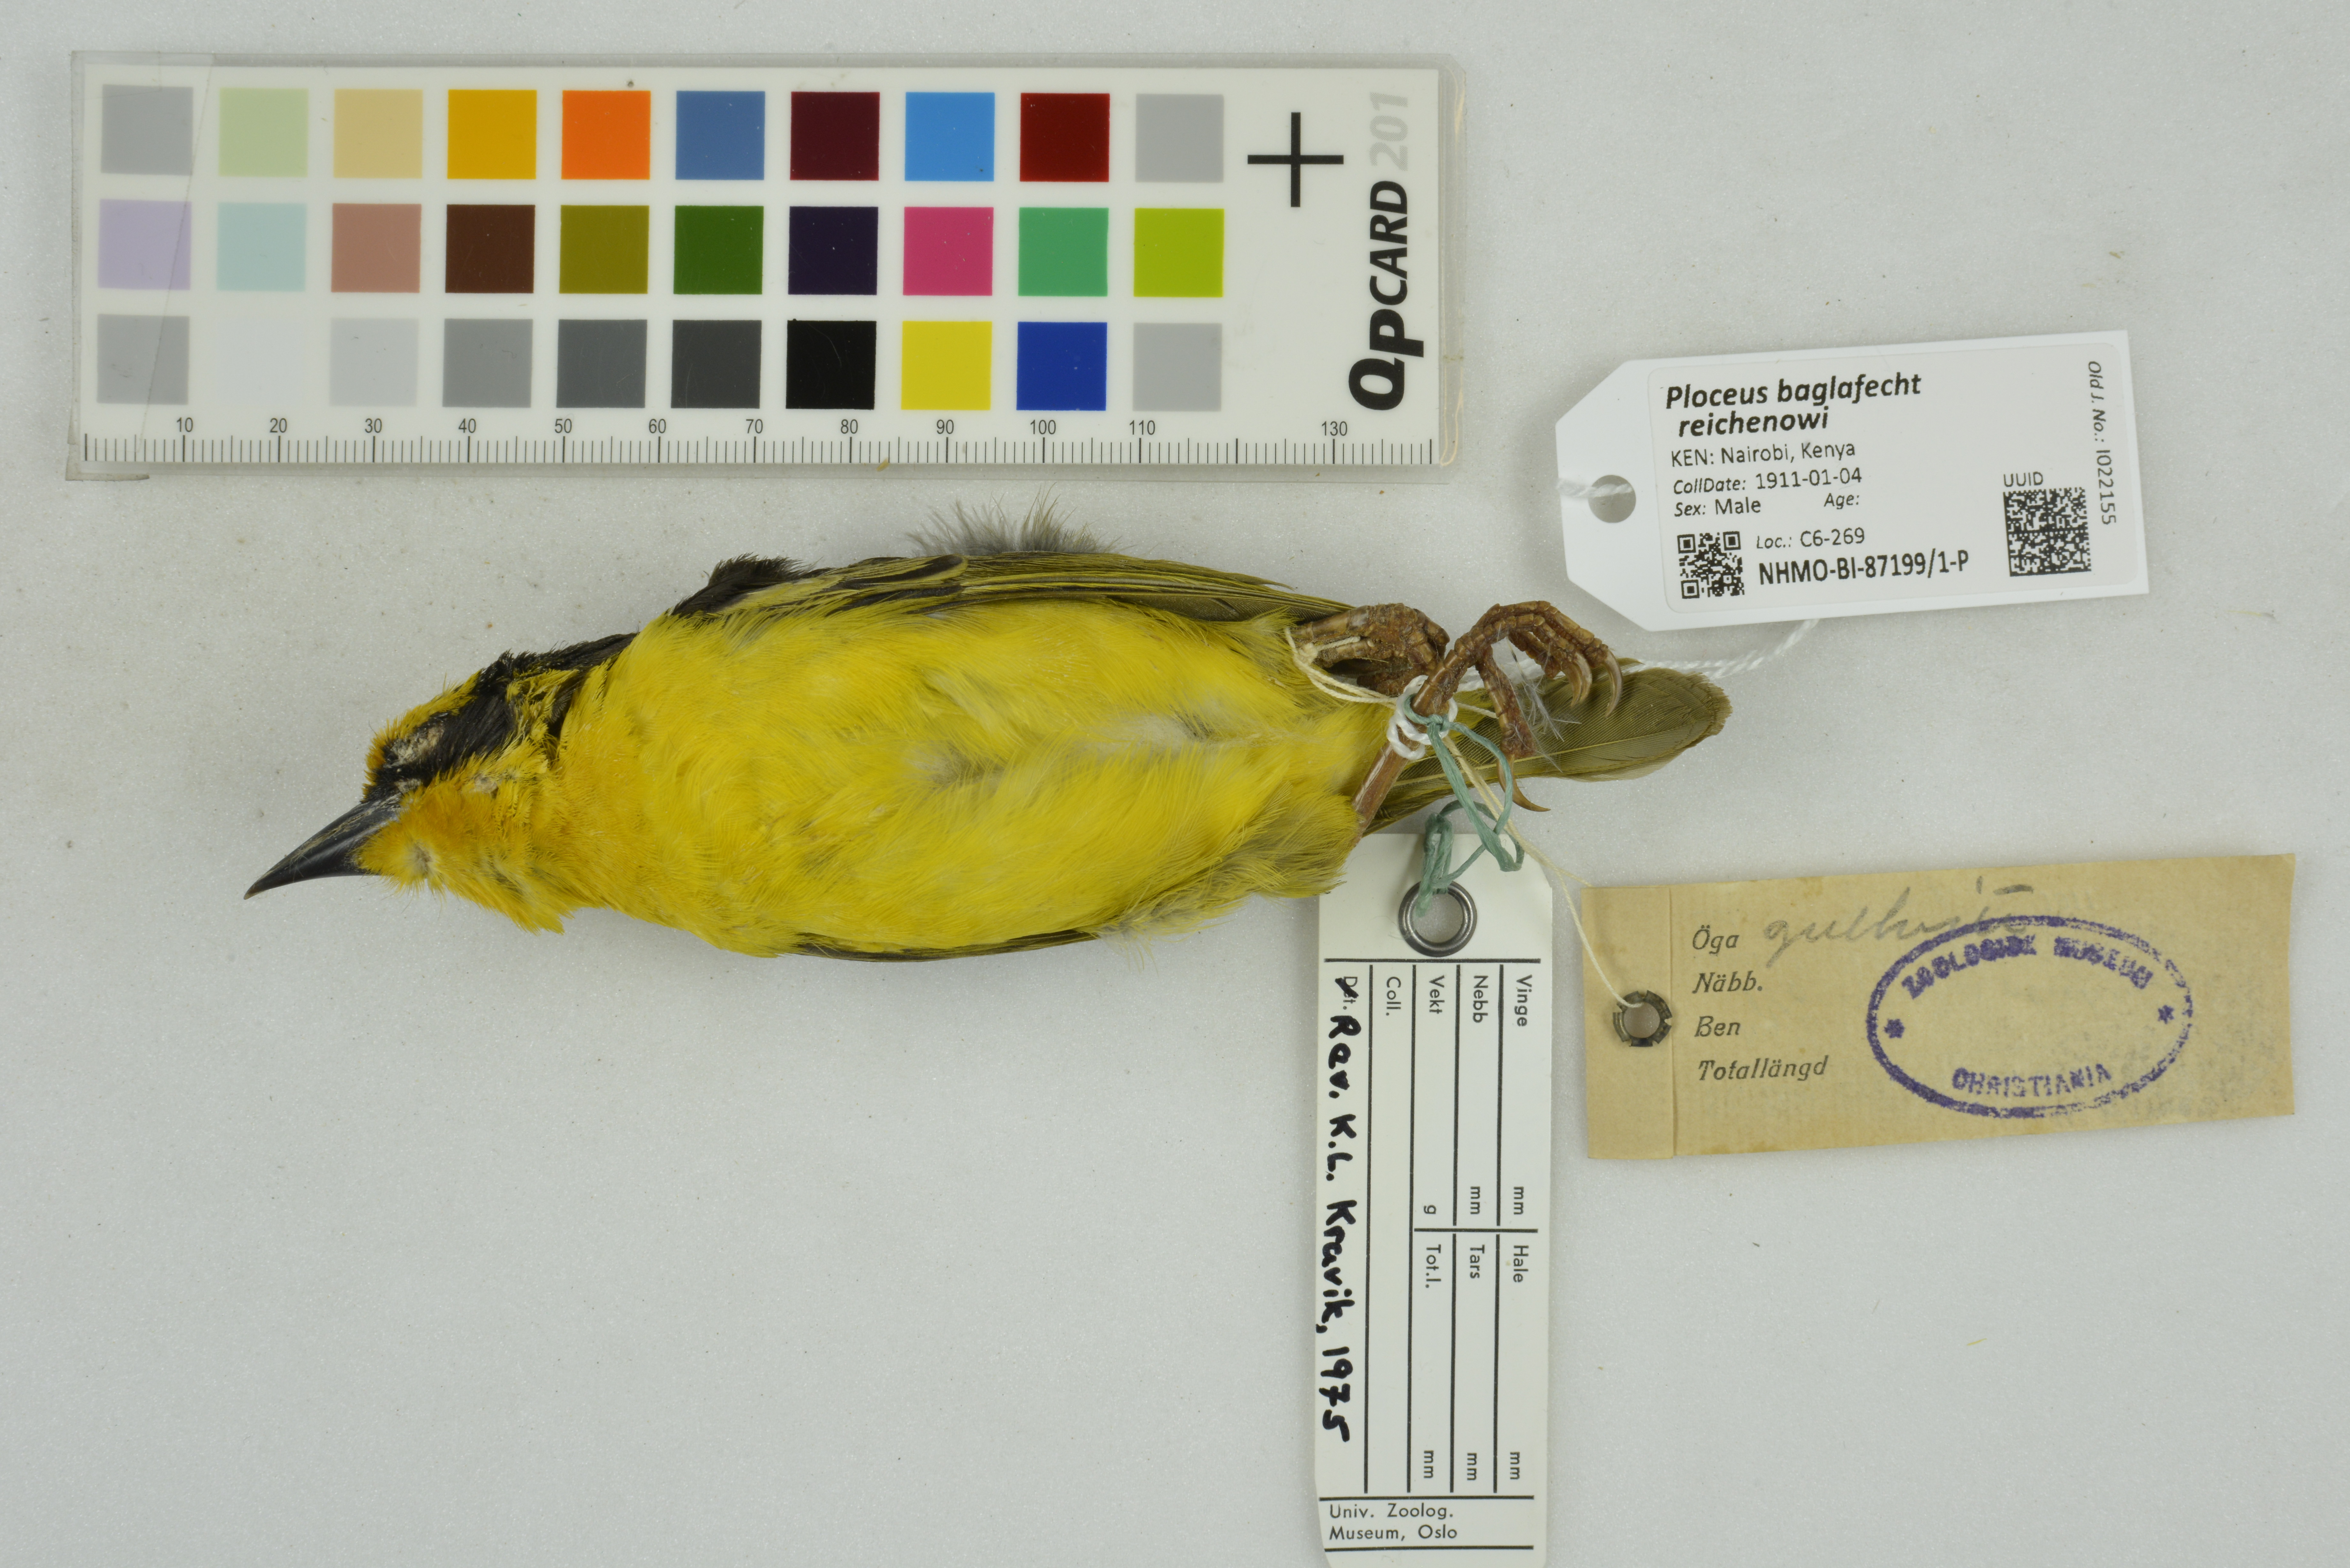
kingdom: Animalia
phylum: Chordata
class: Aves
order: Passeriformes
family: Ploceidae
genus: Ploceus
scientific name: Ploceus baglafecht
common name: Baglafecht weaver
